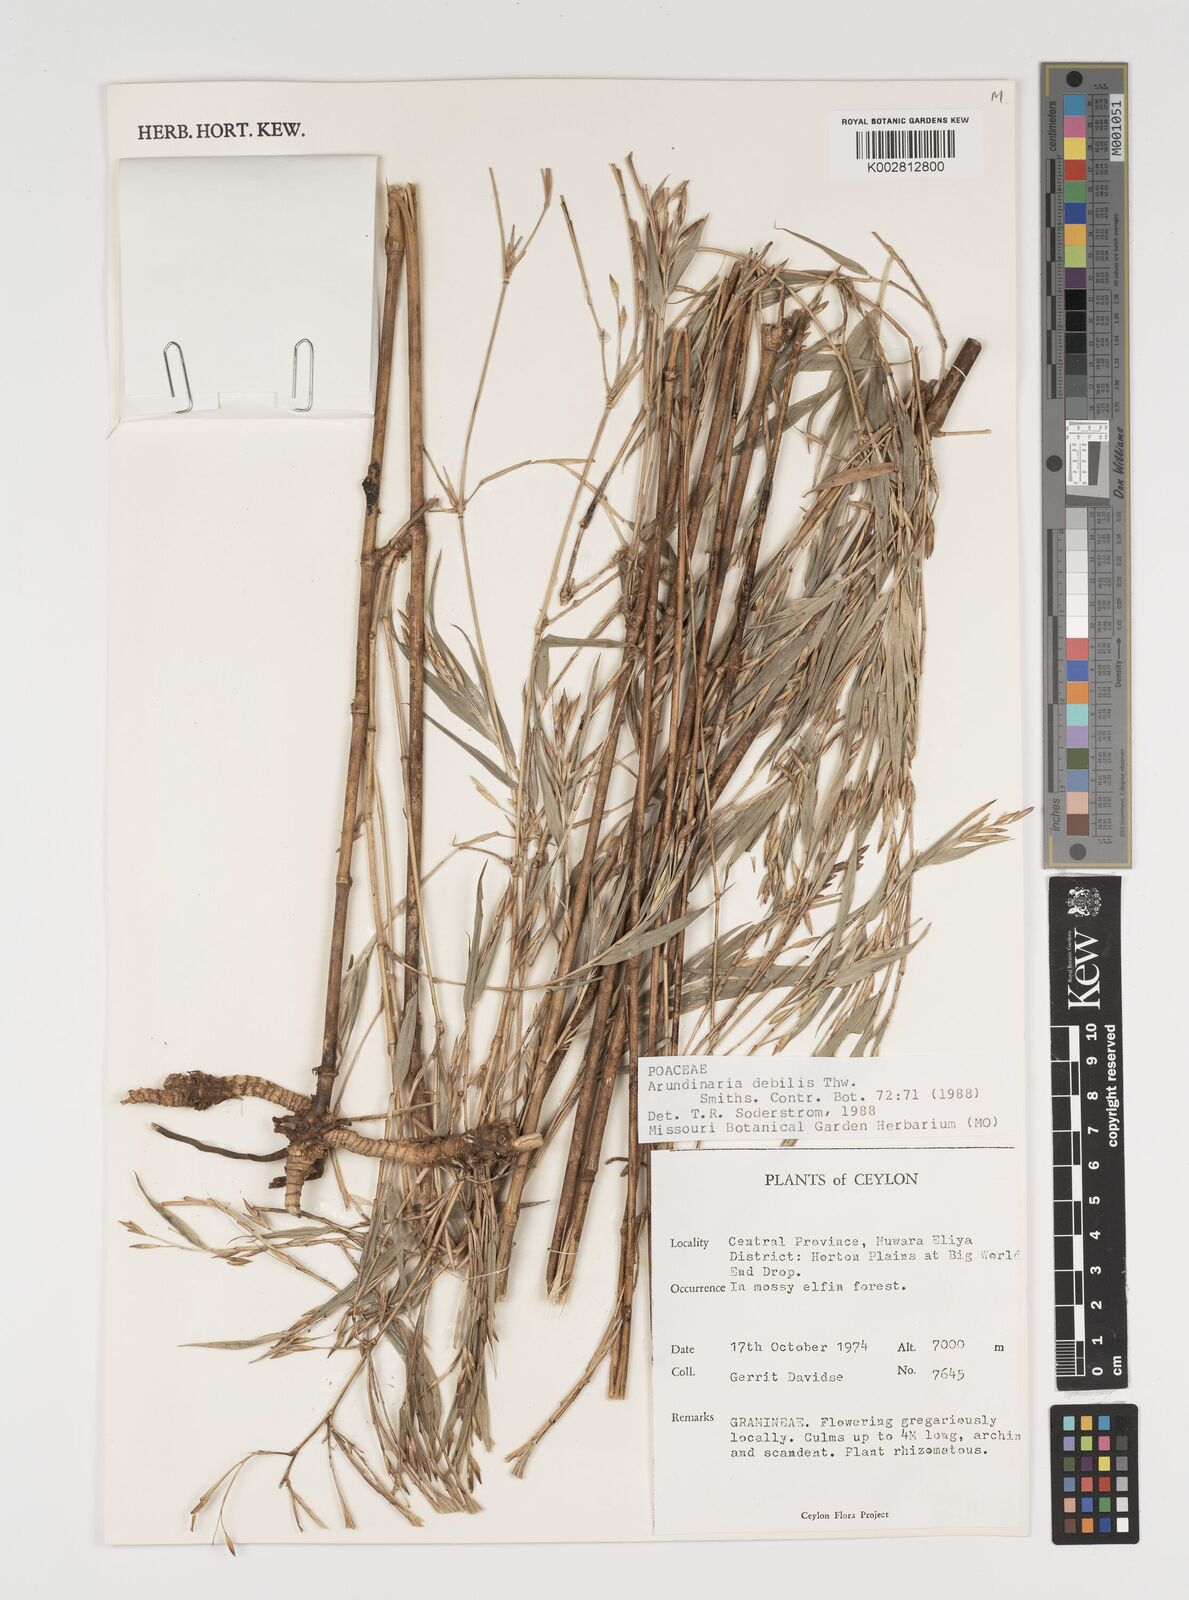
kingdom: Plantae
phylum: Tracheophyta
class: Liliopsida
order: Poales
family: Poaceae
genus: Kuruna
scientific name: Kuruna debilis
